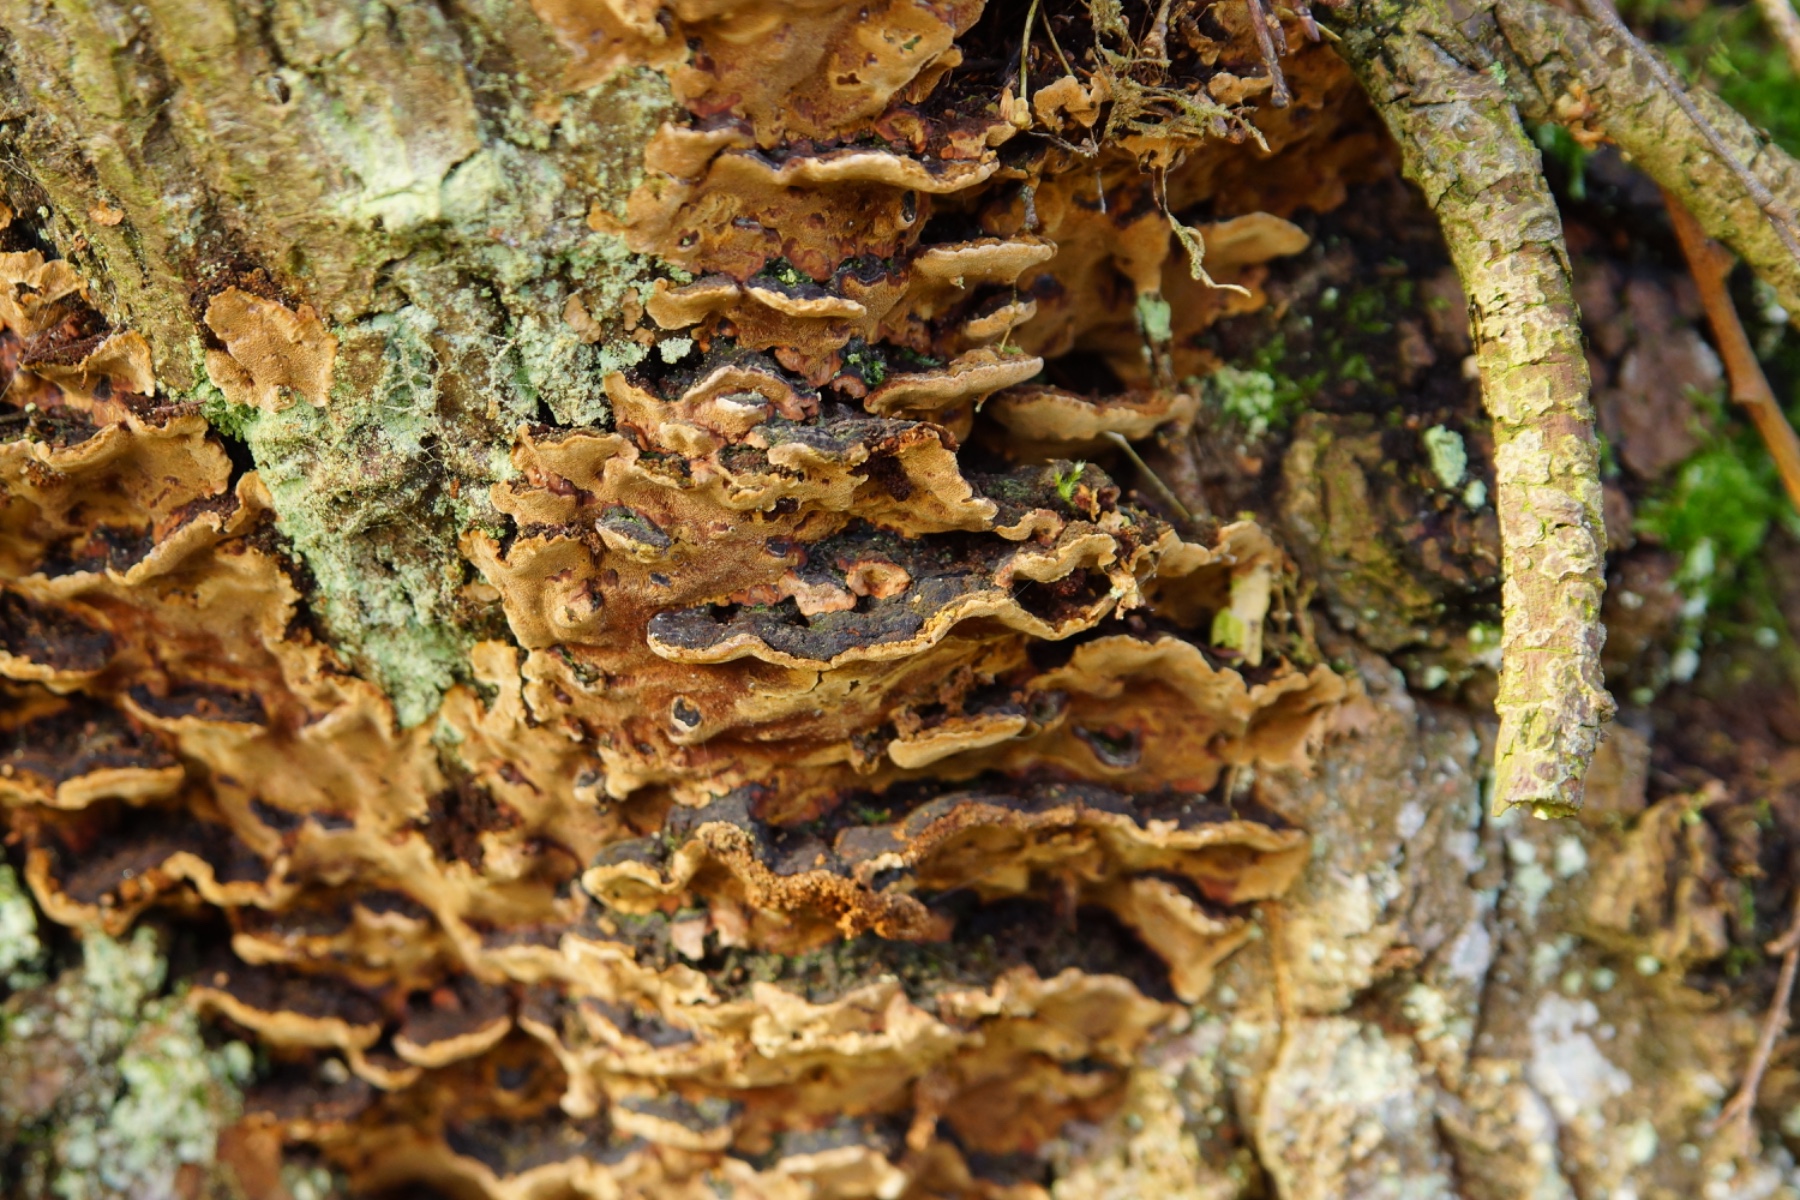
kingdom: Fungi
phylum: Basidiomycota
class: Agaricomycetes
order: Hymenochaetales
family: Hymenochaetaceae
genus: Phellinopsis
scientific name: Phellinopsis conchata
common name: pile-ildporesvamp
